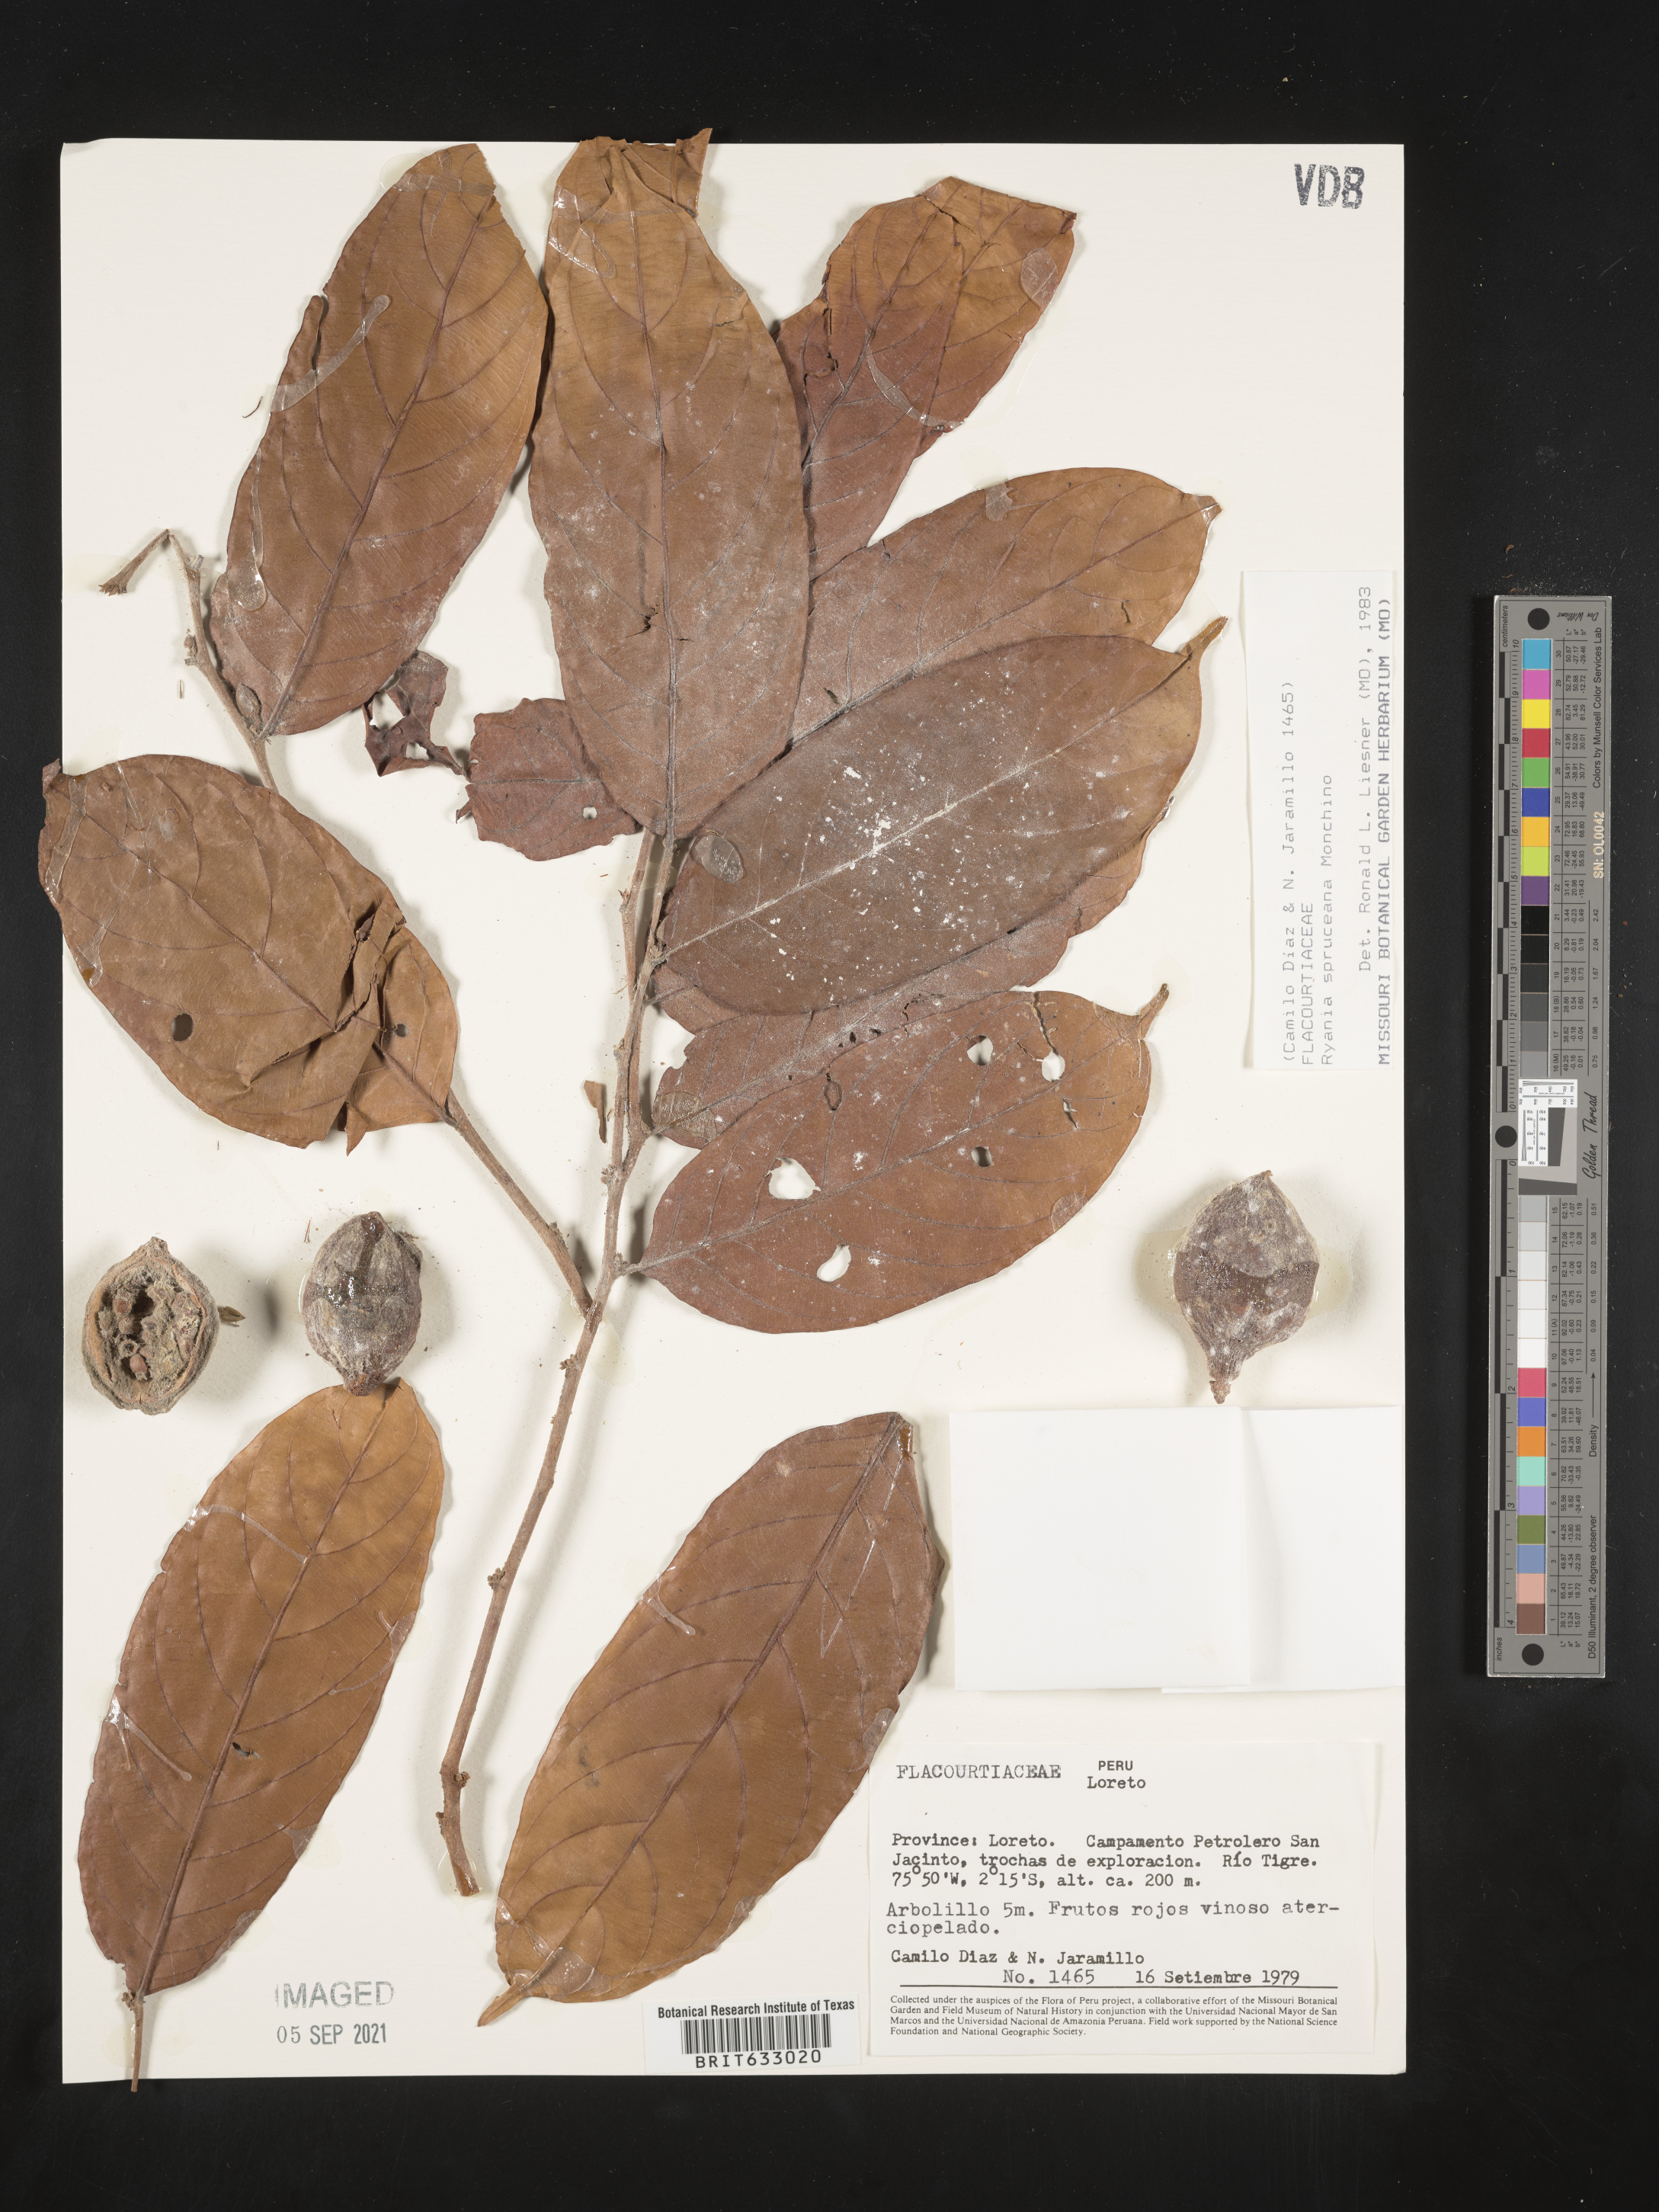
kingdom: Plantae
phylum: Tracheophyta
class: Magnoliopsida
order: Malpighiales
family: Salicaceae
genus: Ryania
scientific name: Ryania
